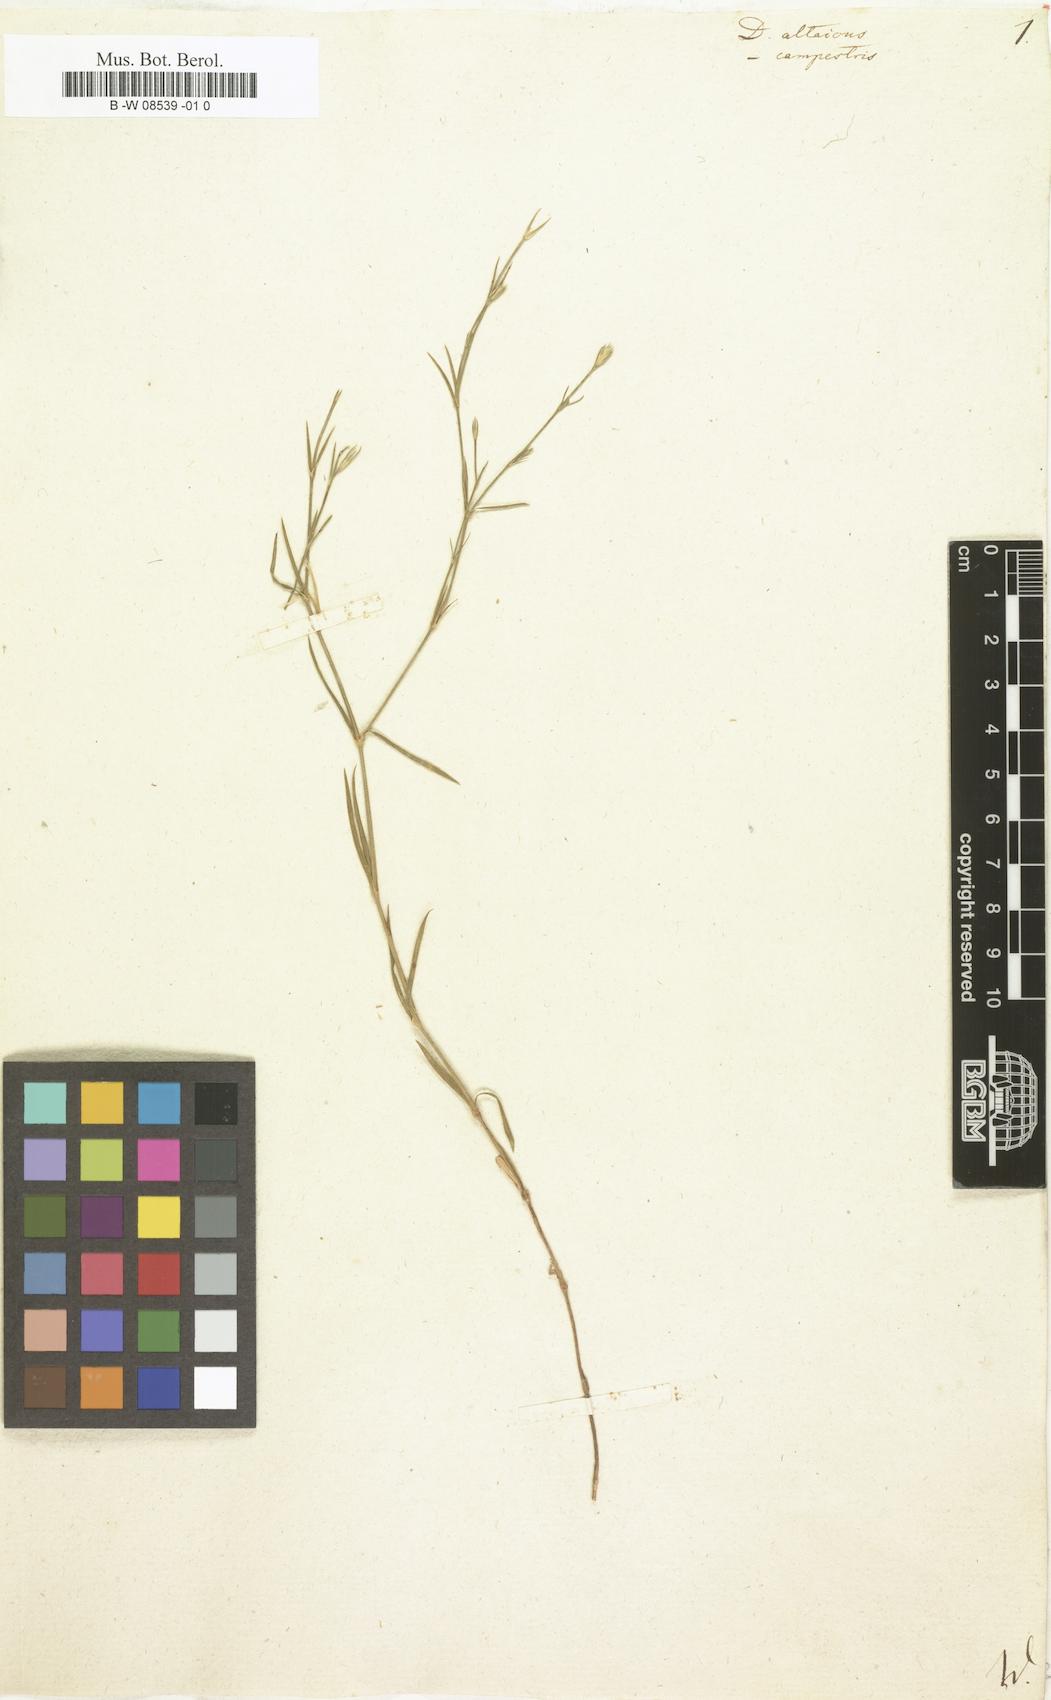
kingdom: Plantae
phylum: Tracheophyta
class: Magnoliopsida
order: Caryophyllales
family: Caryophyllaceae
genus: Dianthus
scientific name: Dianthus altaicus
